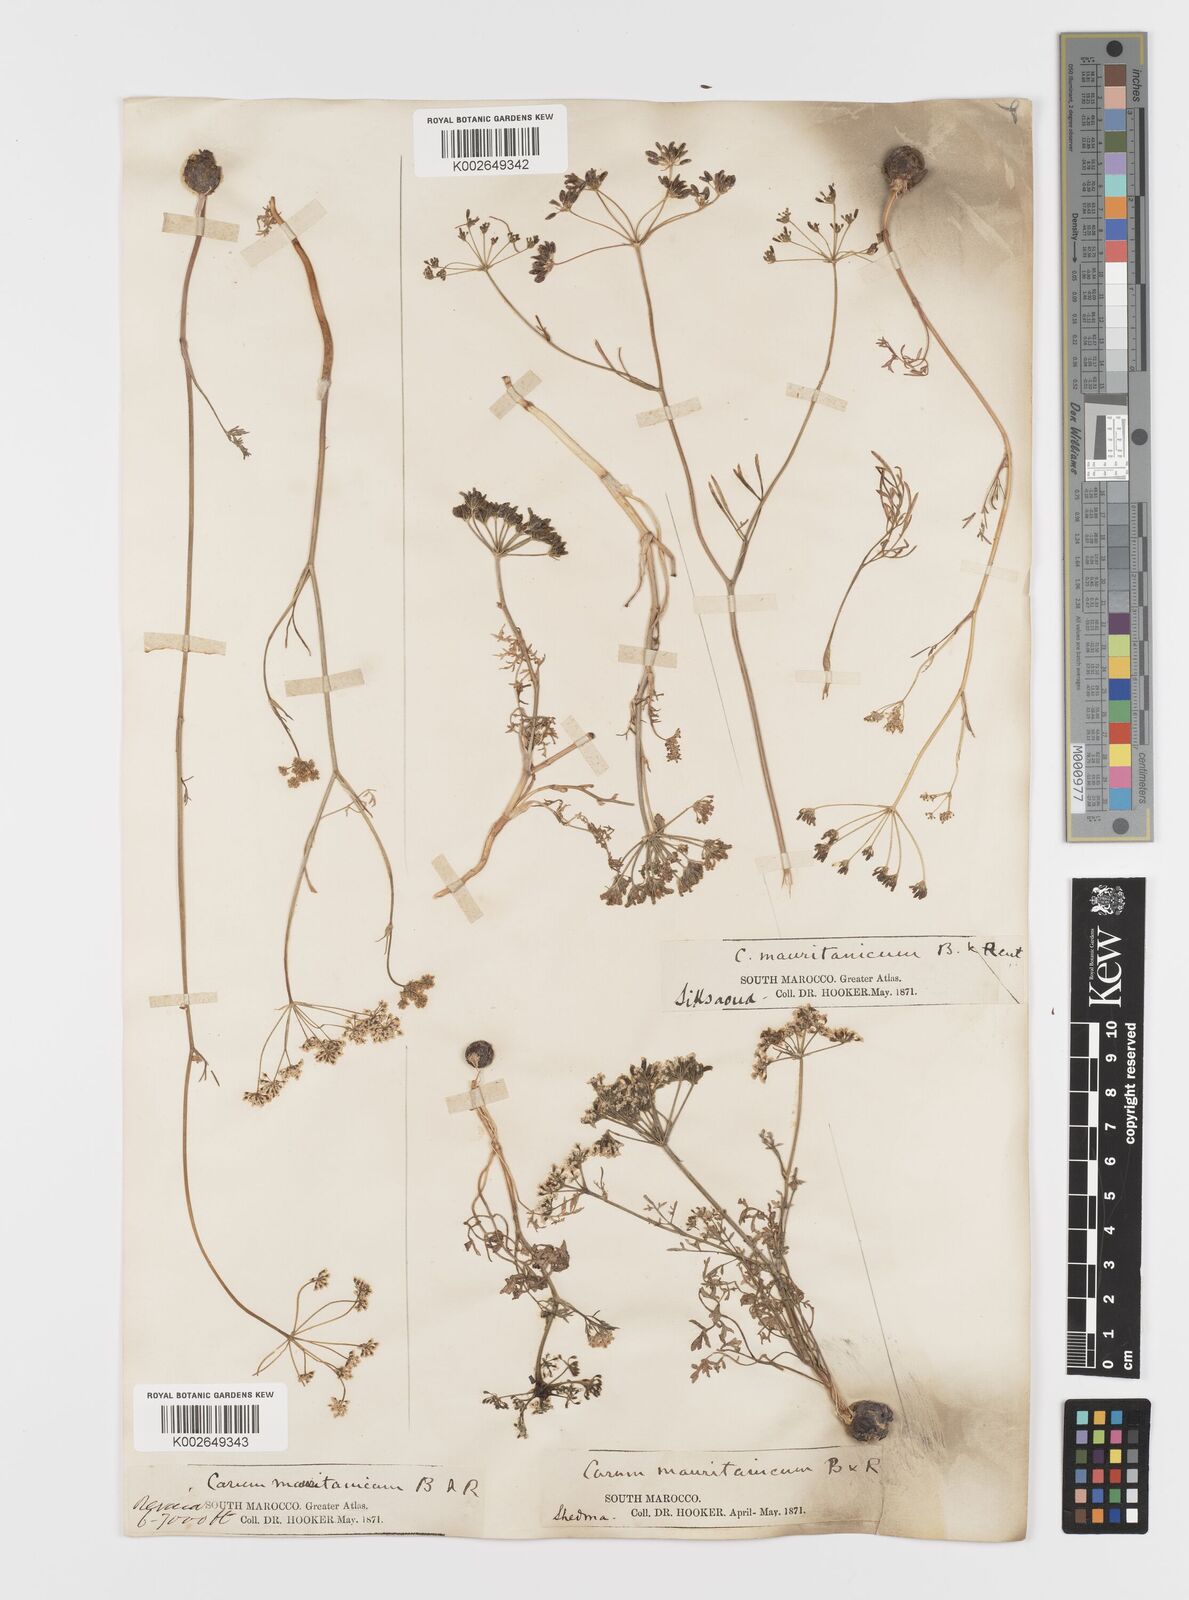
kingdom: Plantae
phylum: Tracheophyta
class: Magnoliopsida
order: Apiales
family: Apiaceae
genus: Bunium
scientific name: Bunium fontanesii
